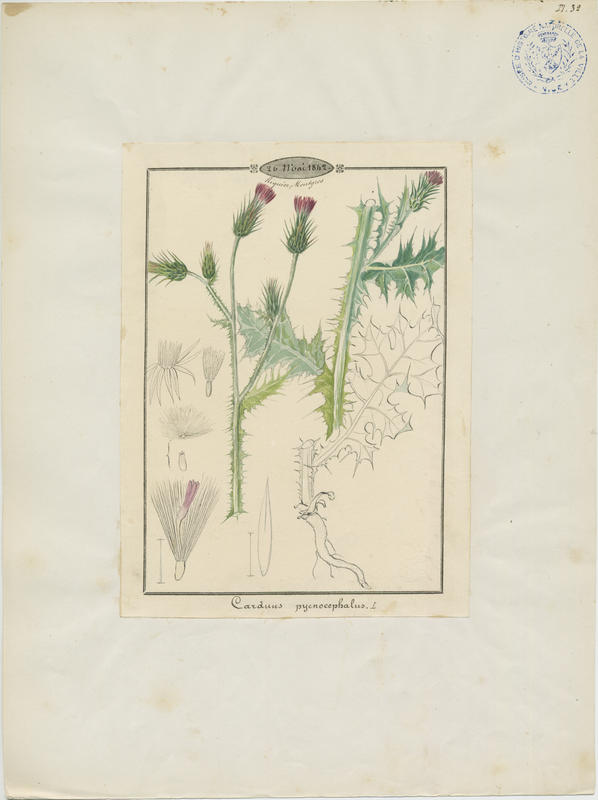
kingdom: Plantae
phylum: Tracheophyta
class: Magnoliopsida
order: Asterales
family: Asteraceae
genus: Carduus
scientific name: Carduus pycnocephalus
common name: Plymouth thistle
